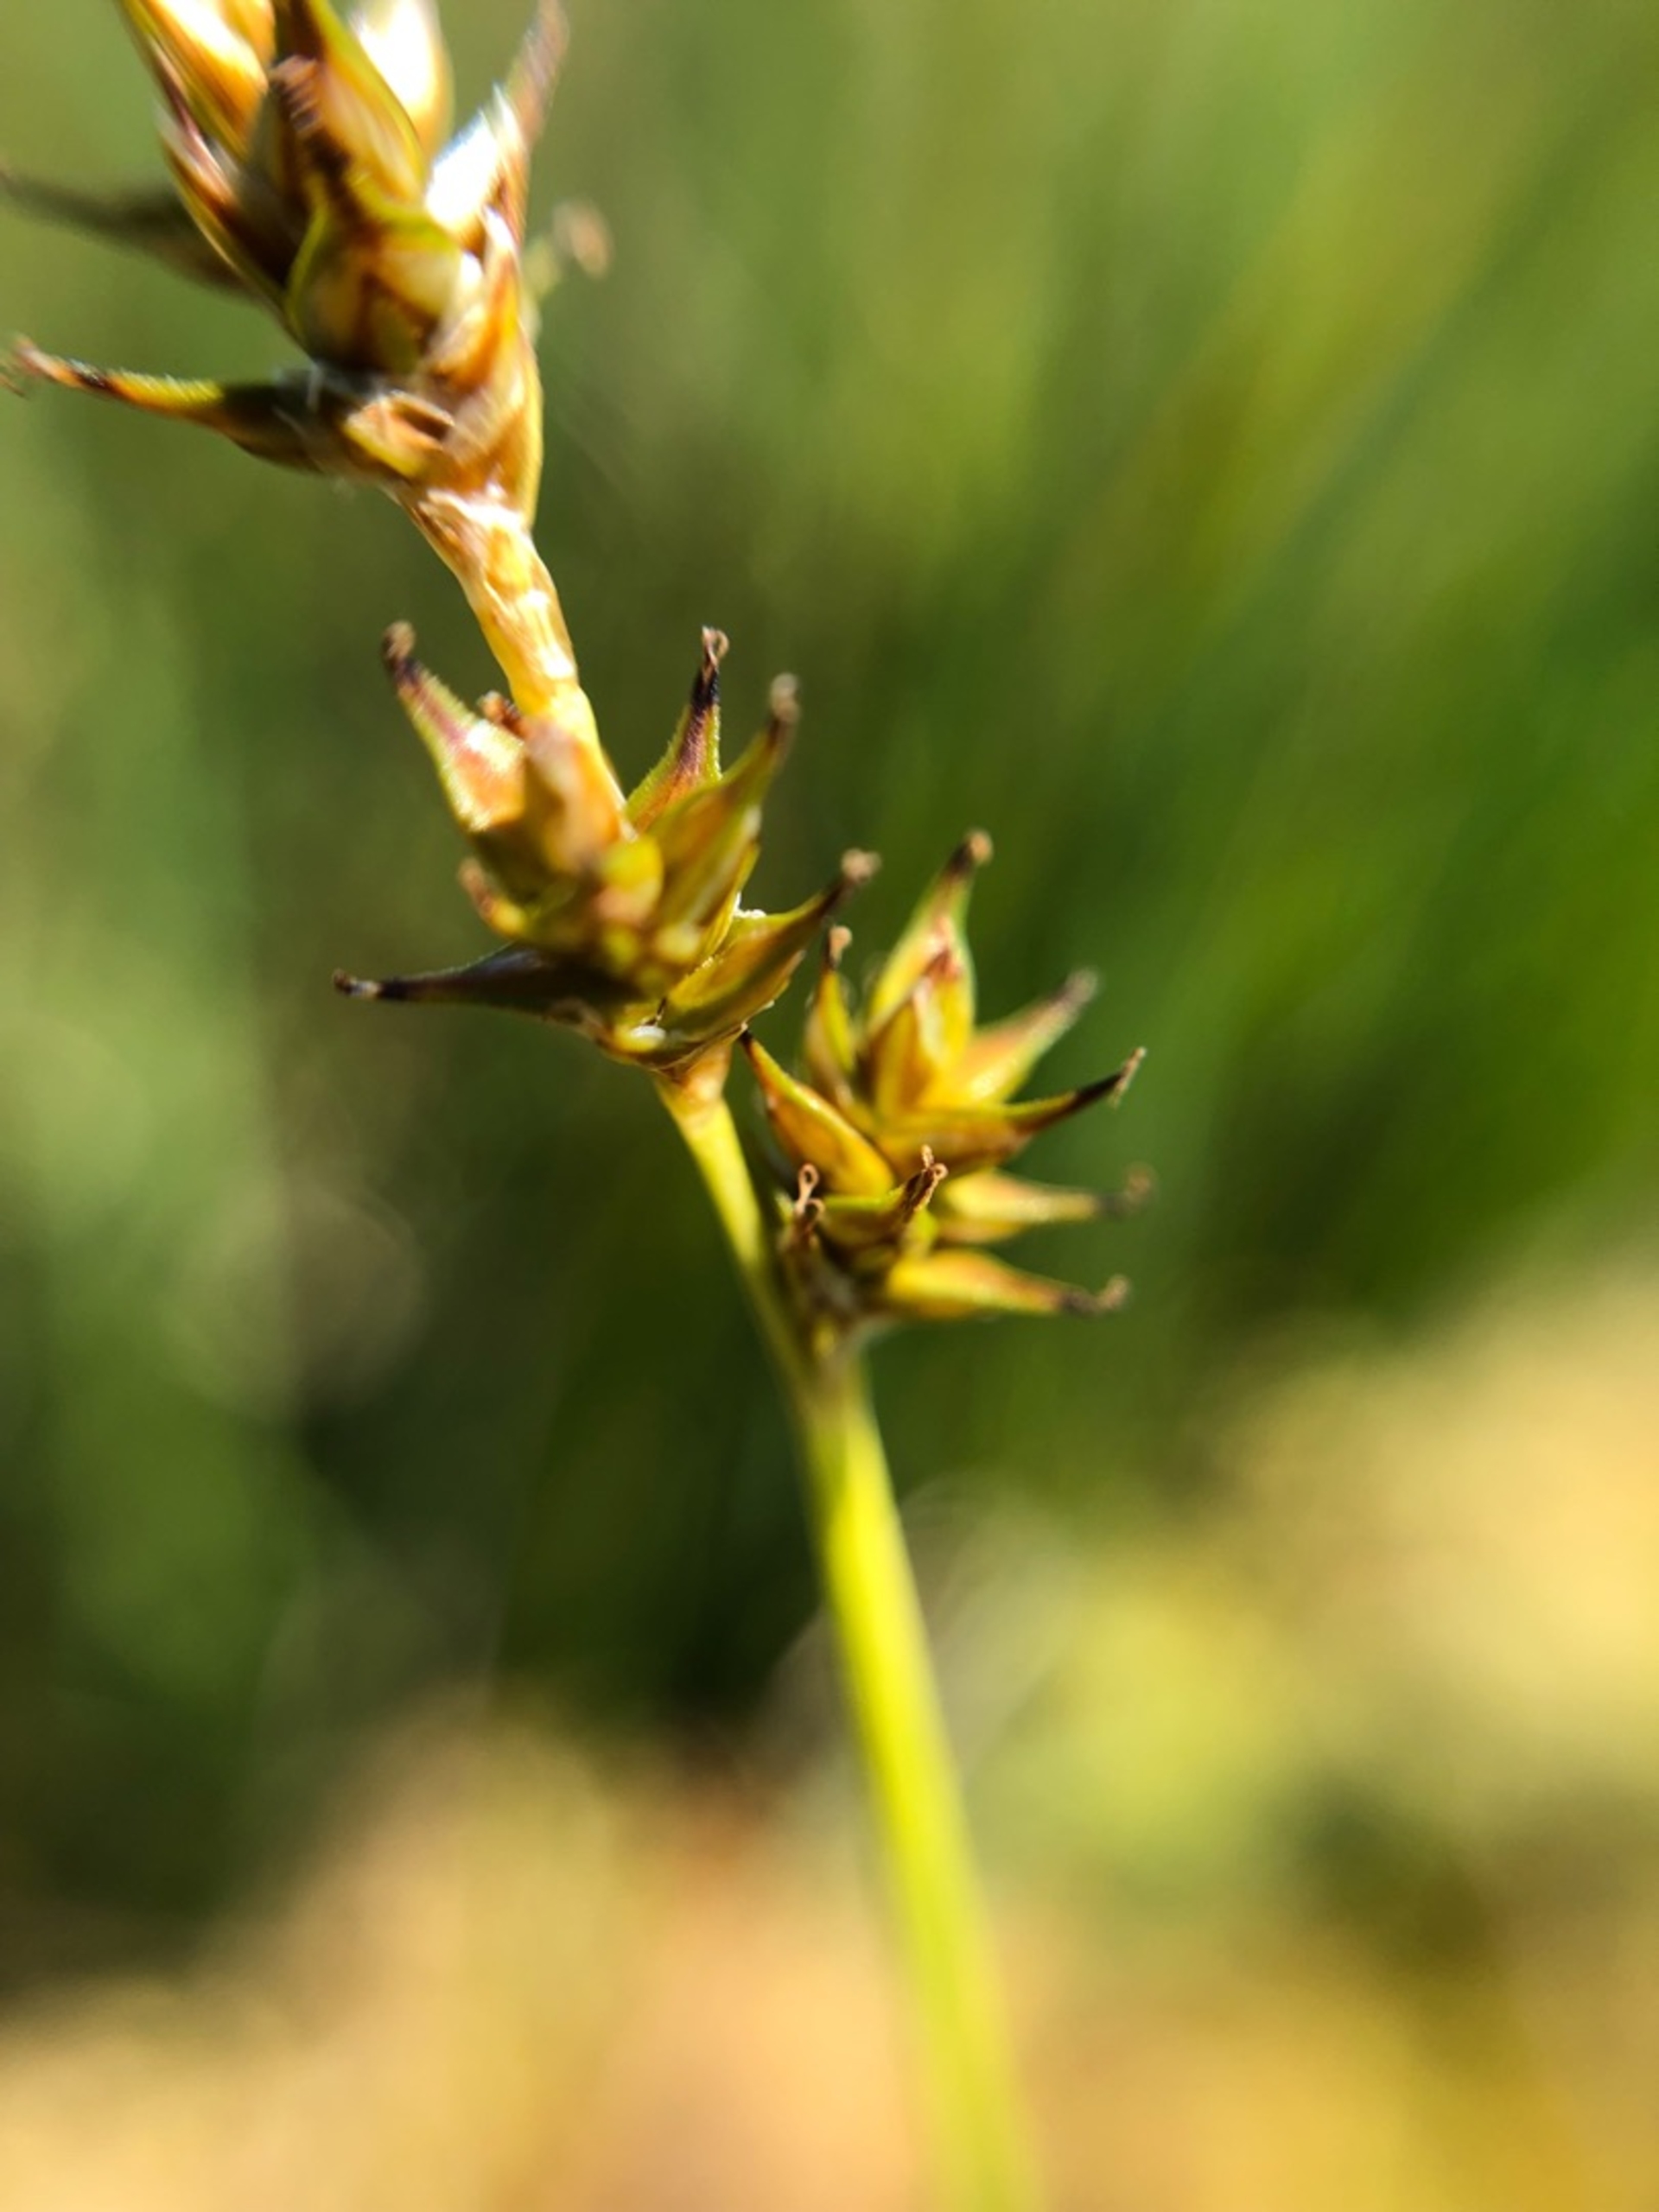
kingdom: Plantae
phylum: Tracheophyta
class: Liliopsida
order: Poales
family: Cyperaceae
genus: Carex
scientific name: Carex echinata
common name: Stjerne-star
